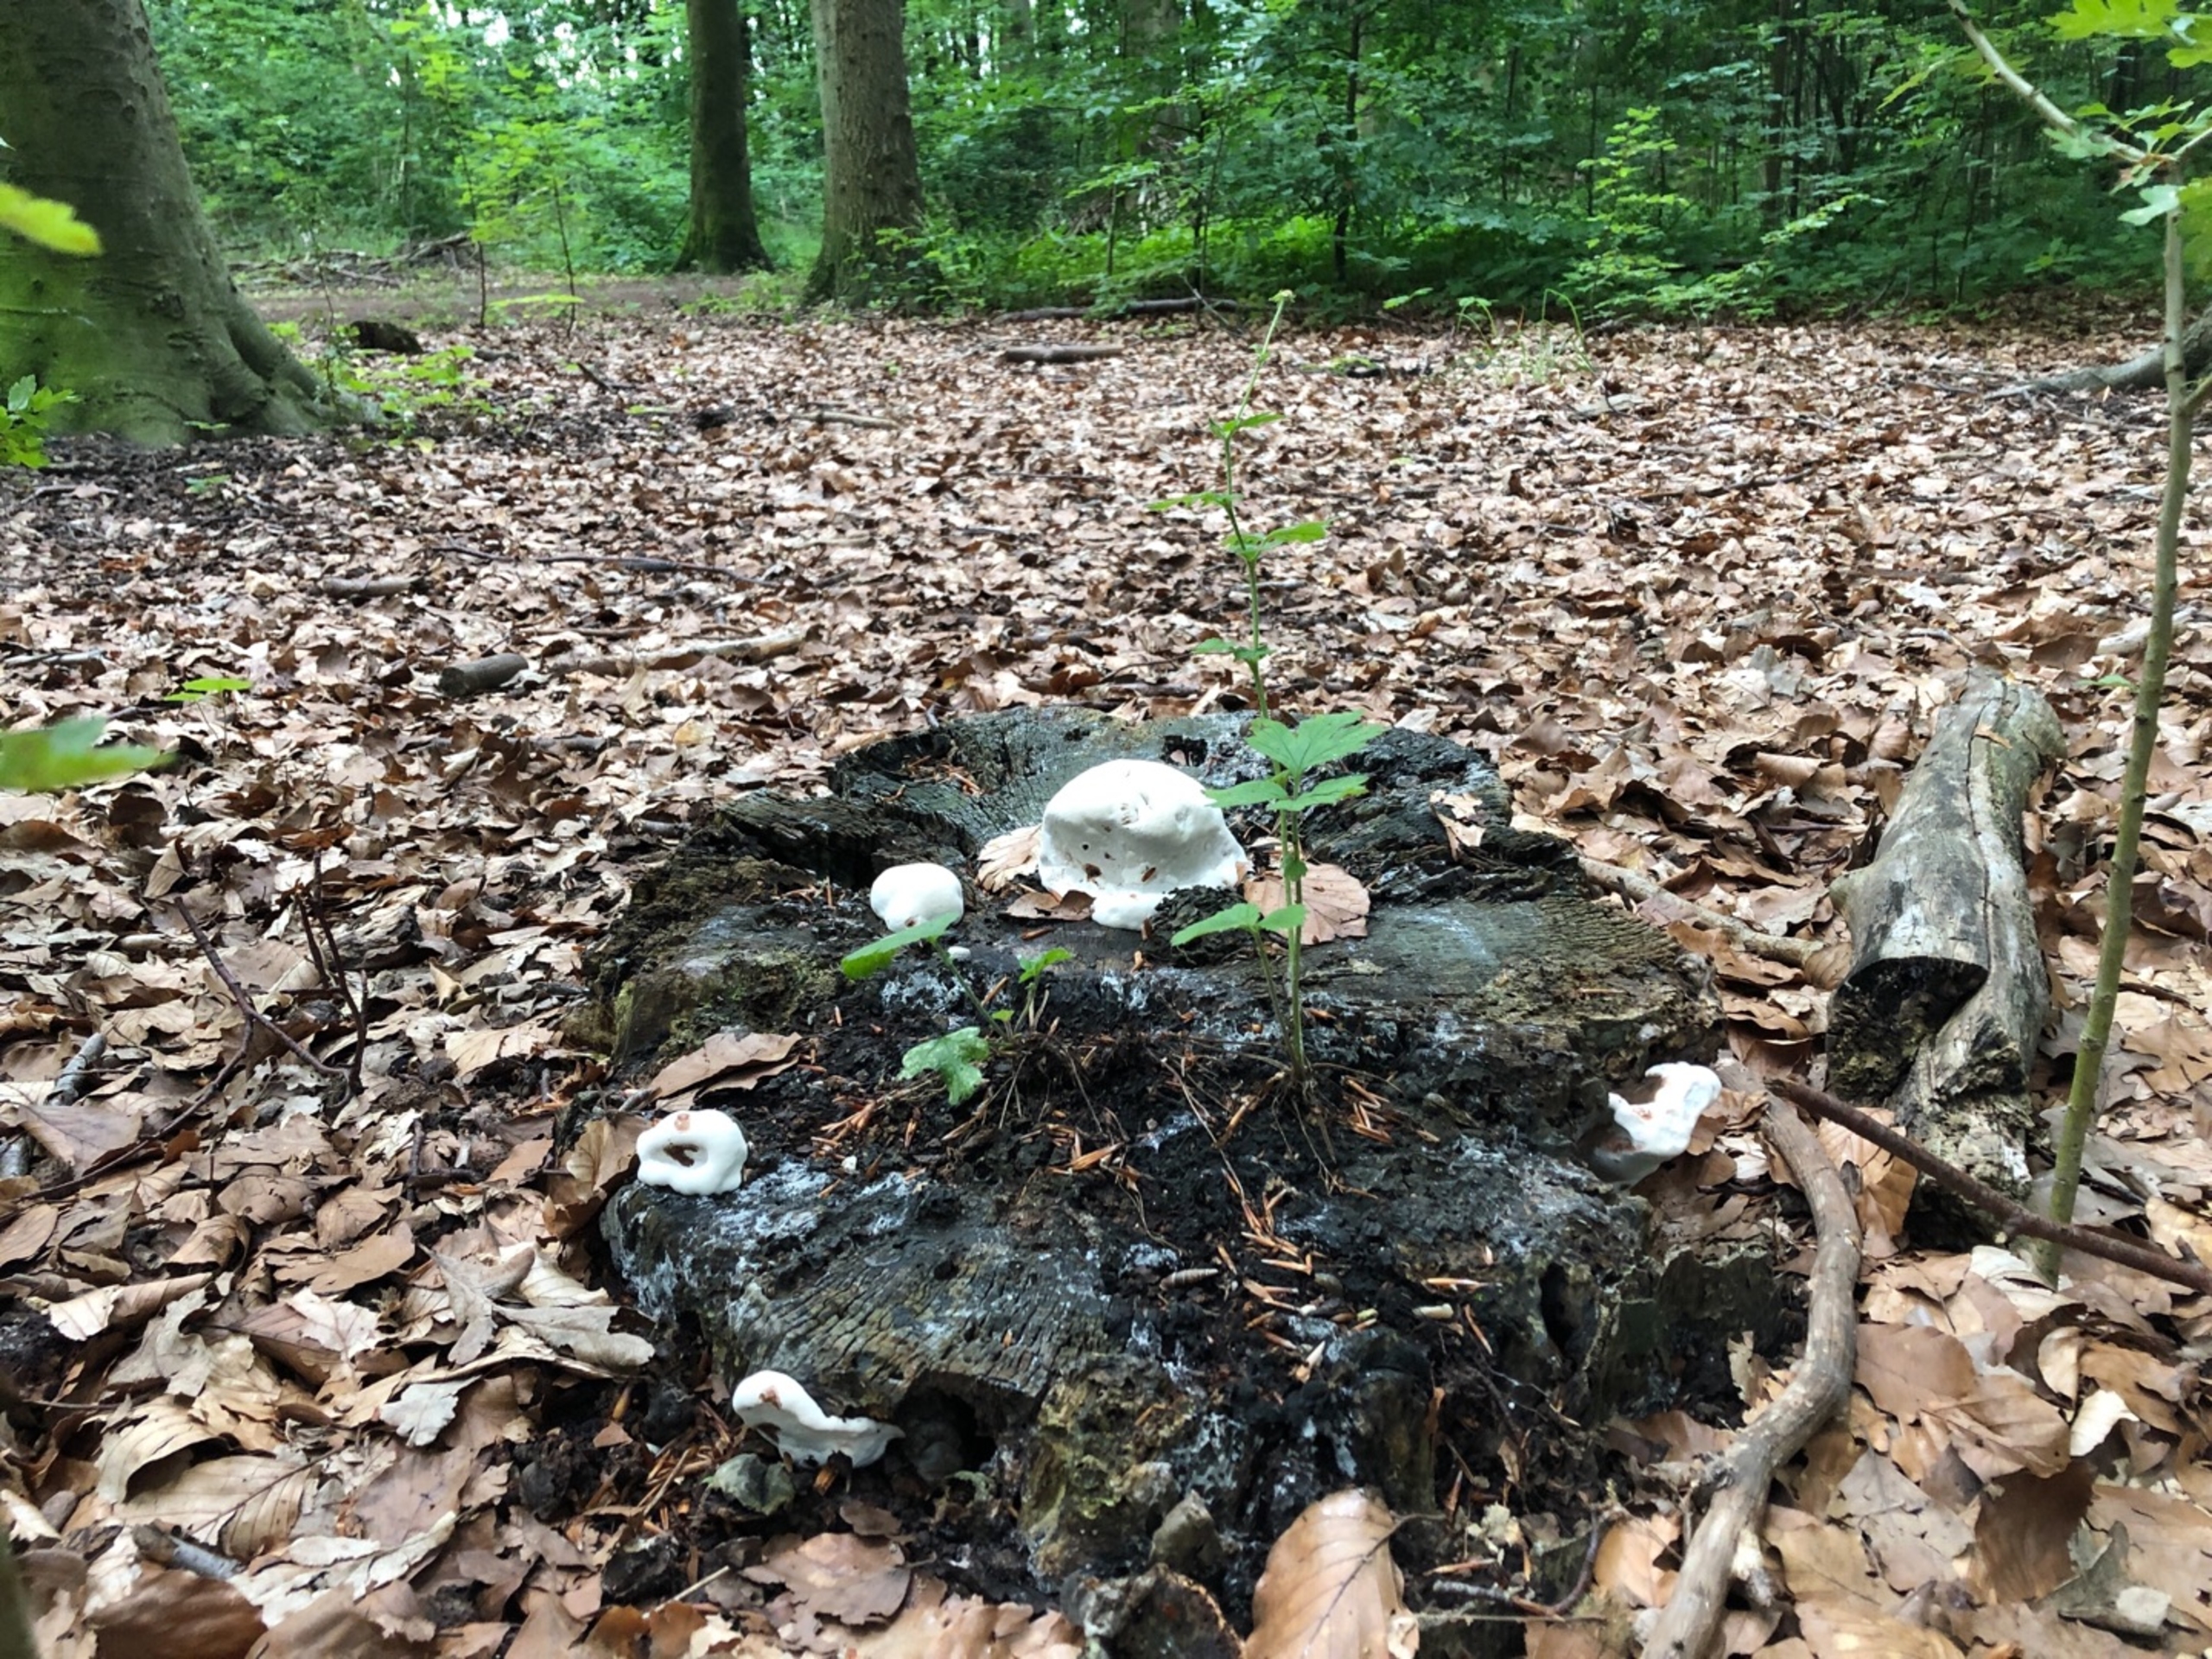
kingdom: Fungi
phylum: Basidiomycota
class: Agaricomycetes
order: Polyporales
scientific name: Polyporales
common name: Poresvampordenen
